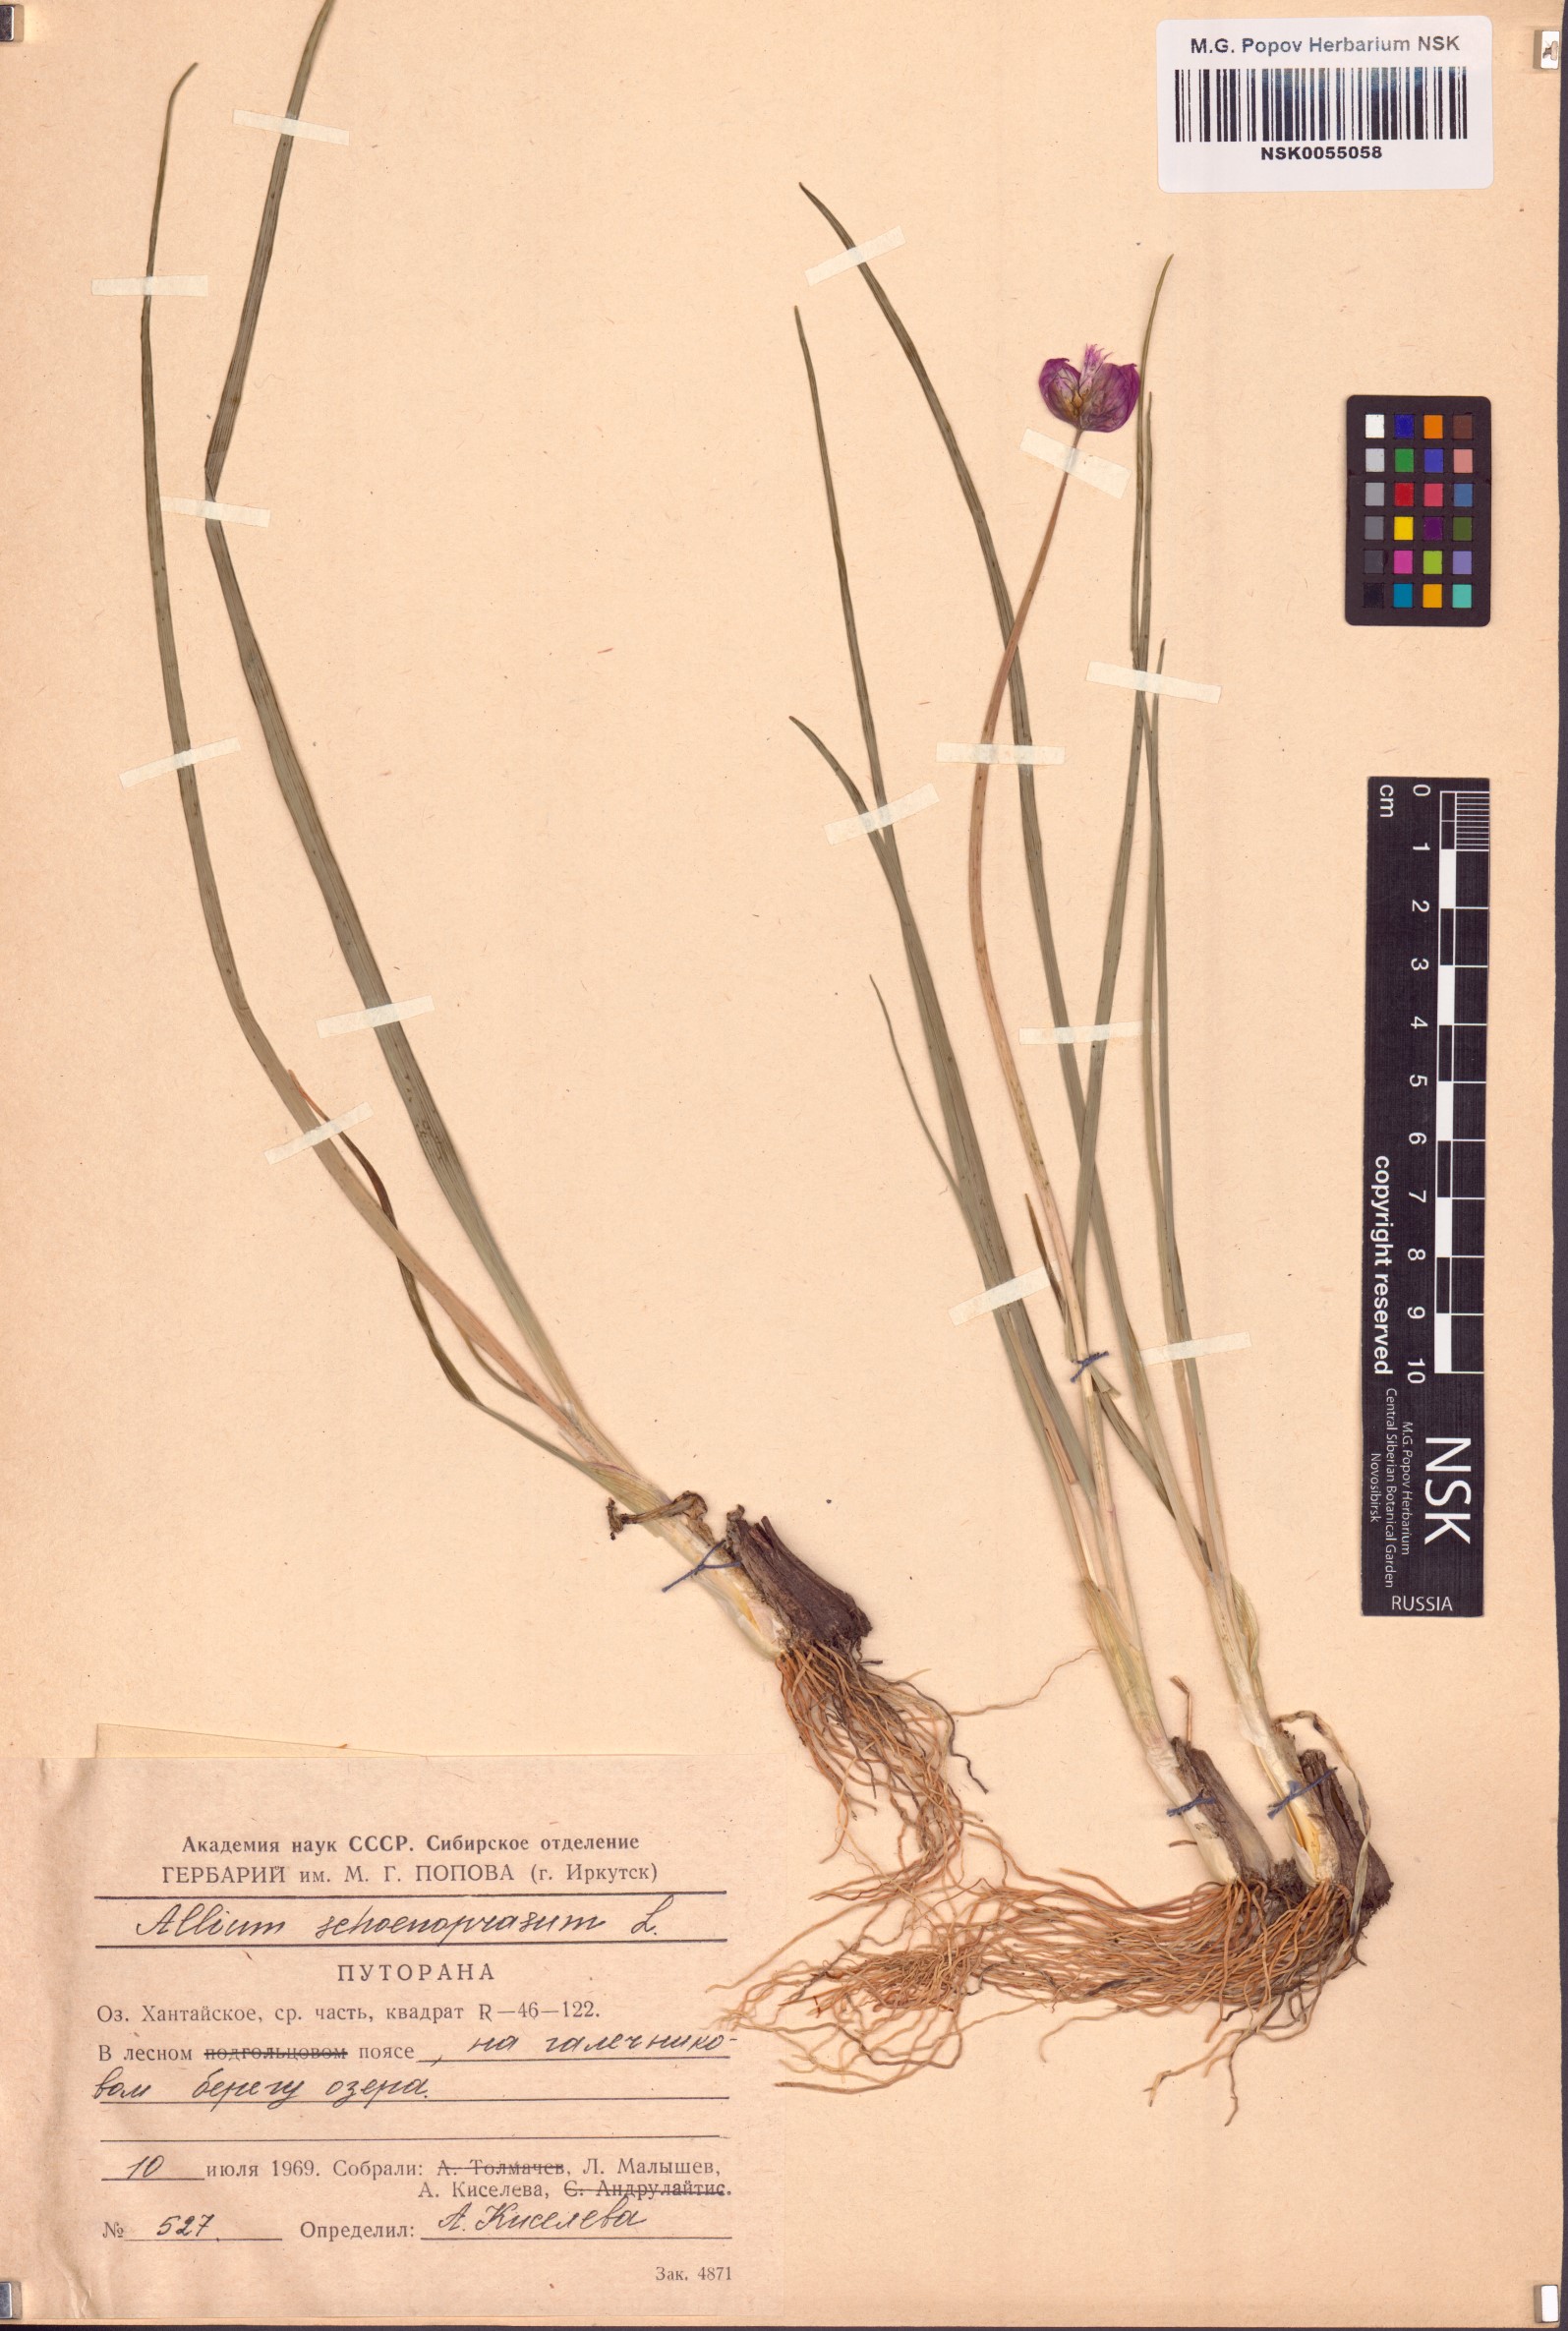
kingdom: Plantae
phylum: Tracheophyta
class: Liliopsida
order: Asparagales
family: Amaryllidaceae
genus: Allium
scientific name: Allium schoenoprasum
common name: Chives
